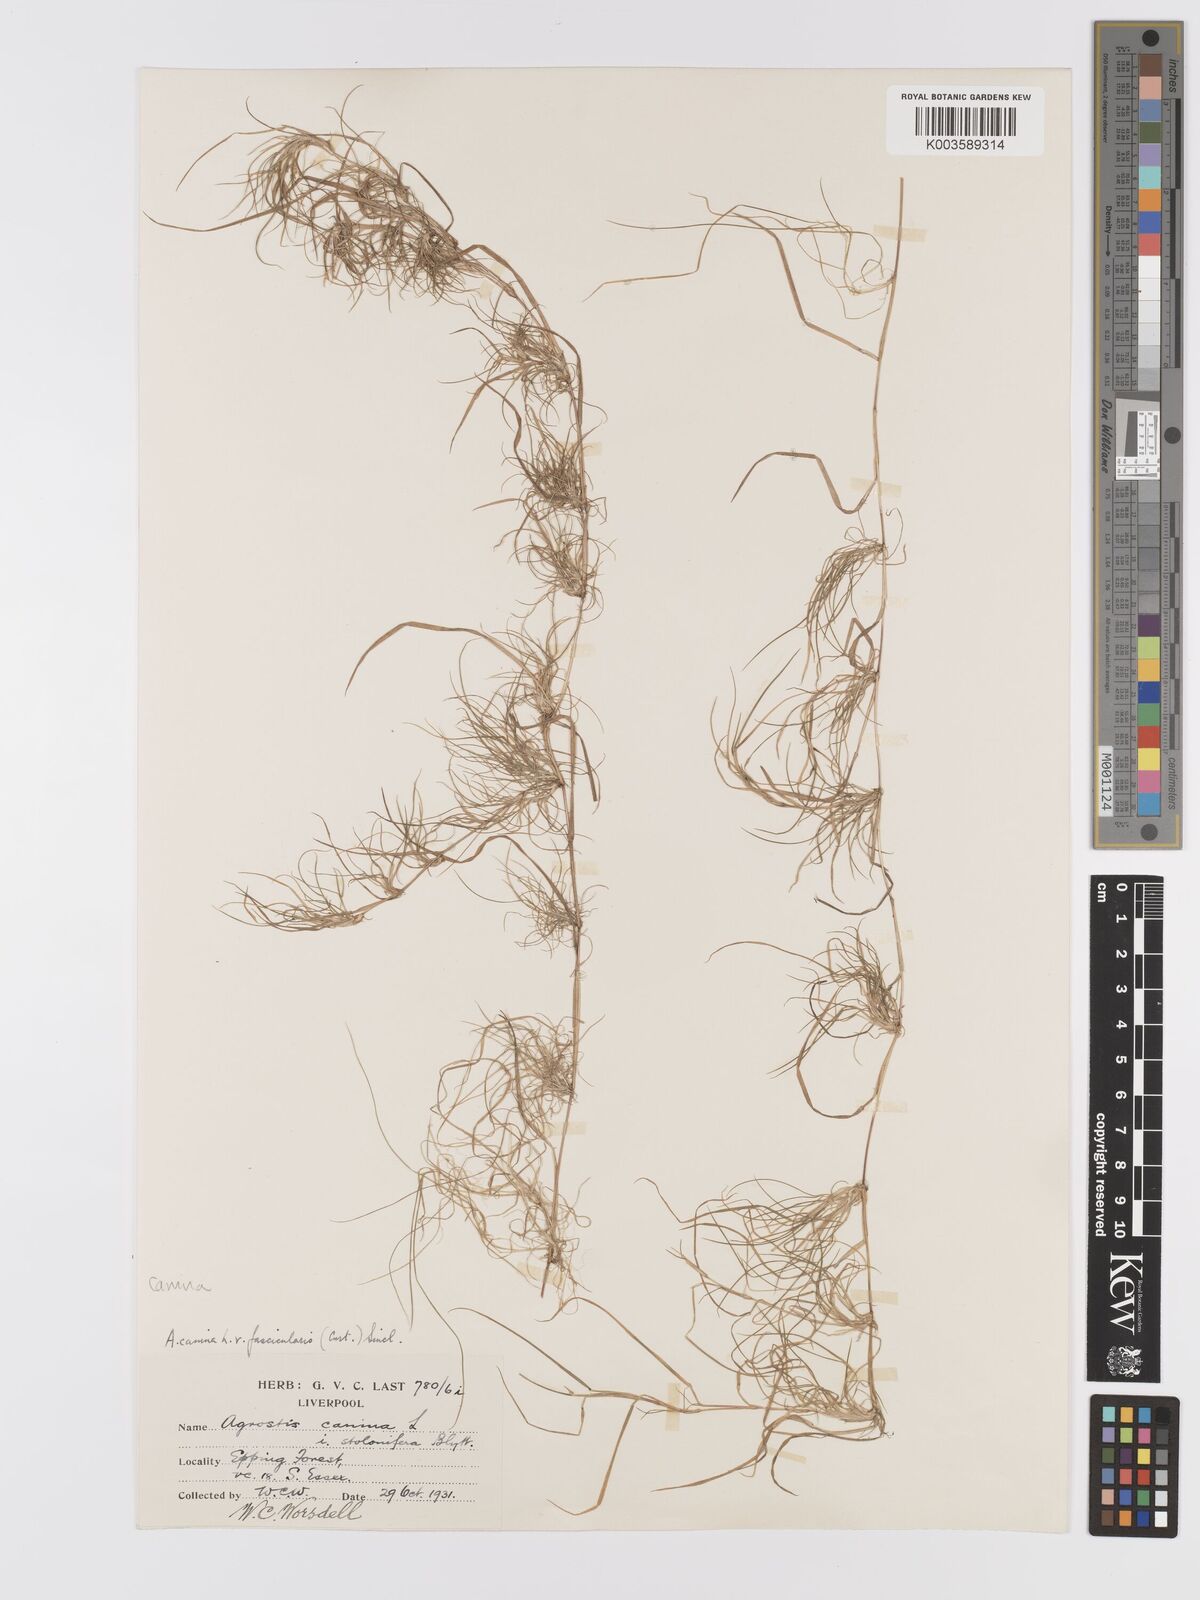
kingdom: Plantae
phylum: Tracheophyta
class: Liliopsida
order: Poales
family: Poaceae
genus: Agrostis
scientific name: Agrostis canina
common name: Velvet bent
